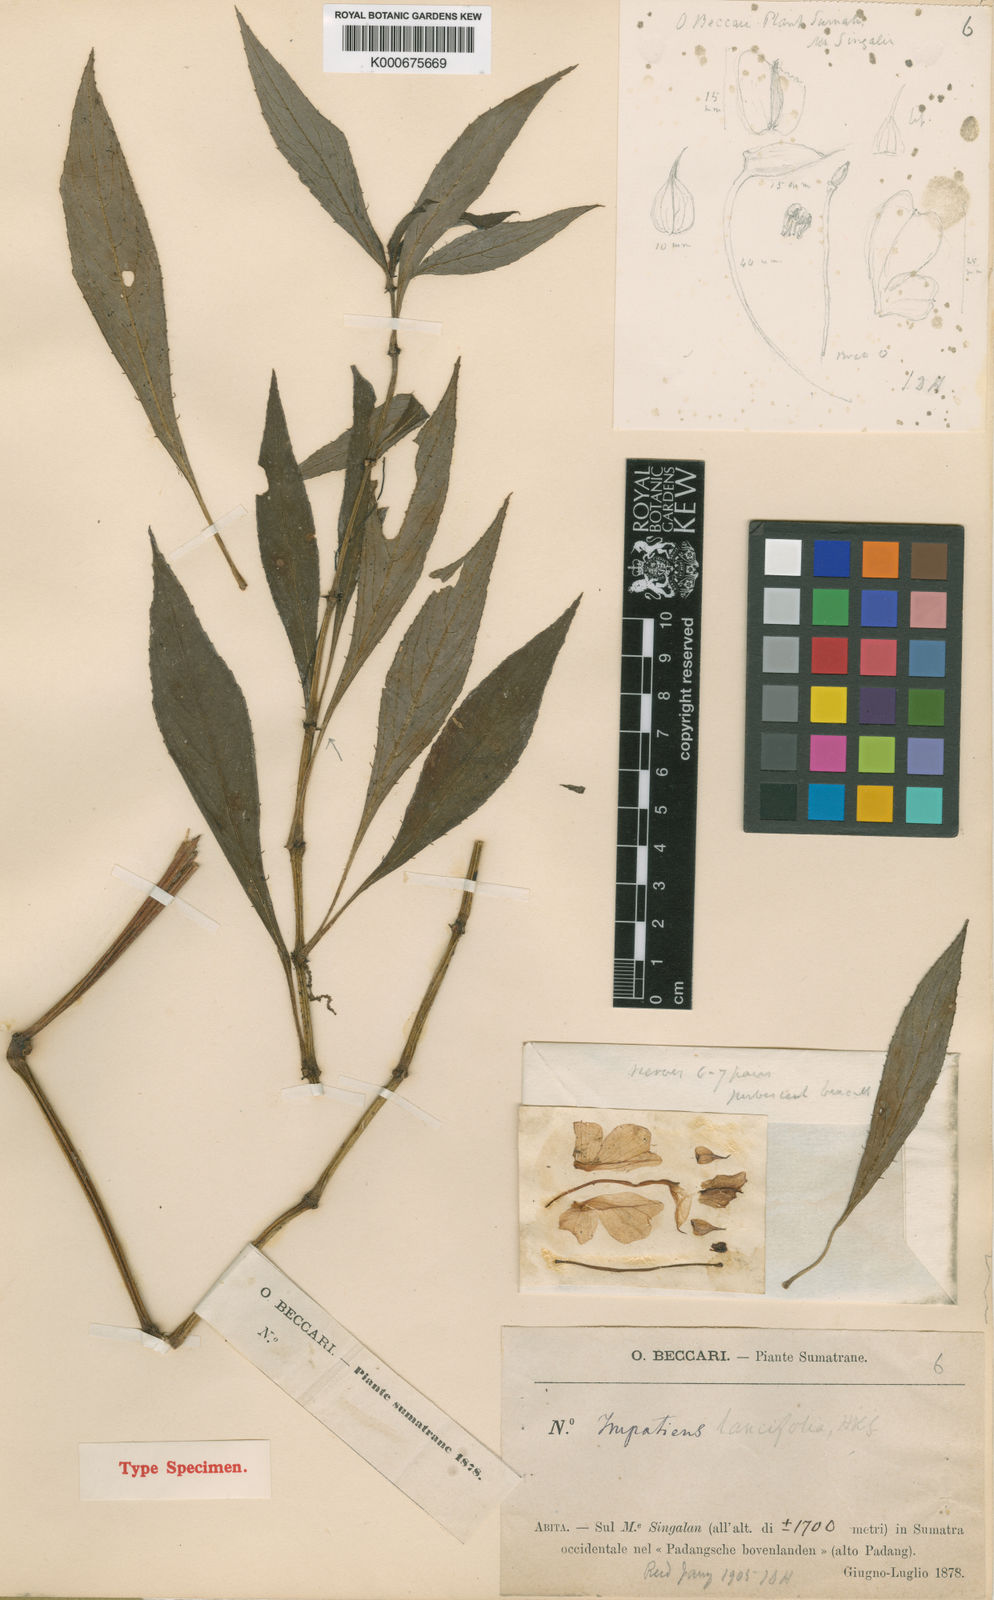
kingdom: Plantae
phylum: Tracheophyta
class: Magnoliopsida
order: Ericales
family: Balsaminaceae
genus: Impatiens
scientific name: Impatiens platypetala
